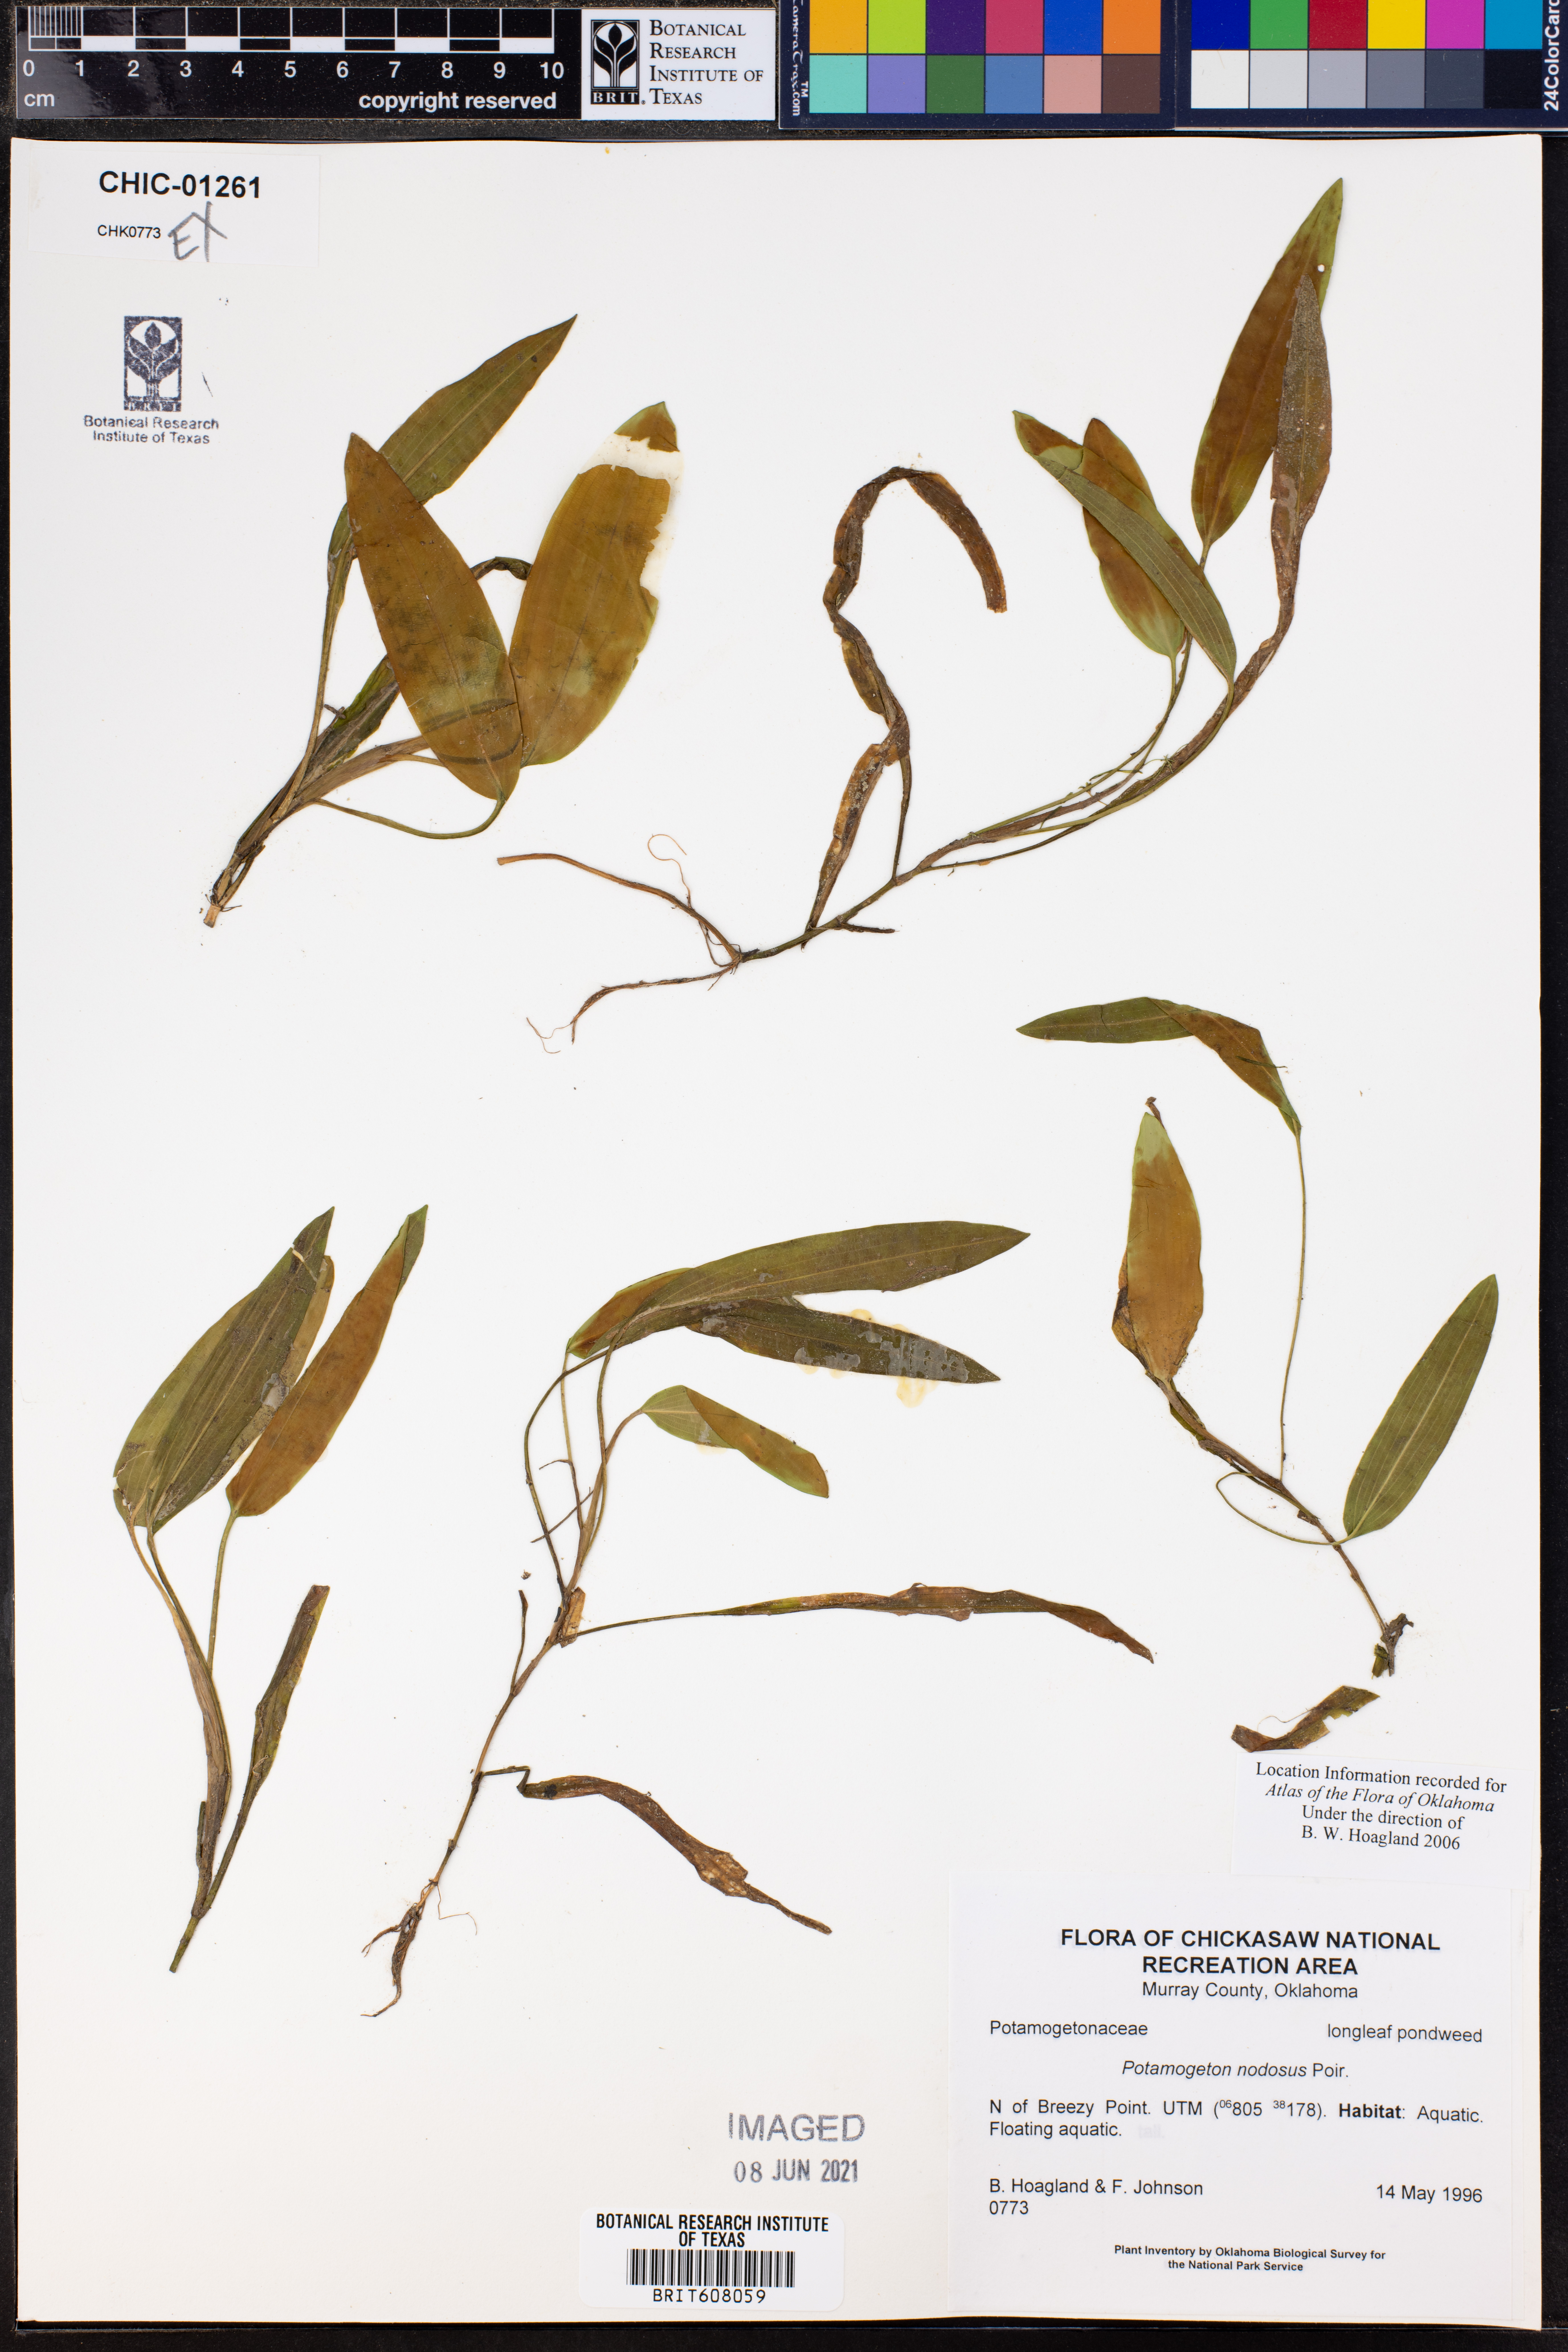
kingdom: Plantae
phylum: Tracheophyta
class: Liliopsida
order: Alismatales
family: Potamogetonaceae
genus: Potamogeton
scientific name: Potamogeton nodosus
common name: Loddon pondweed
